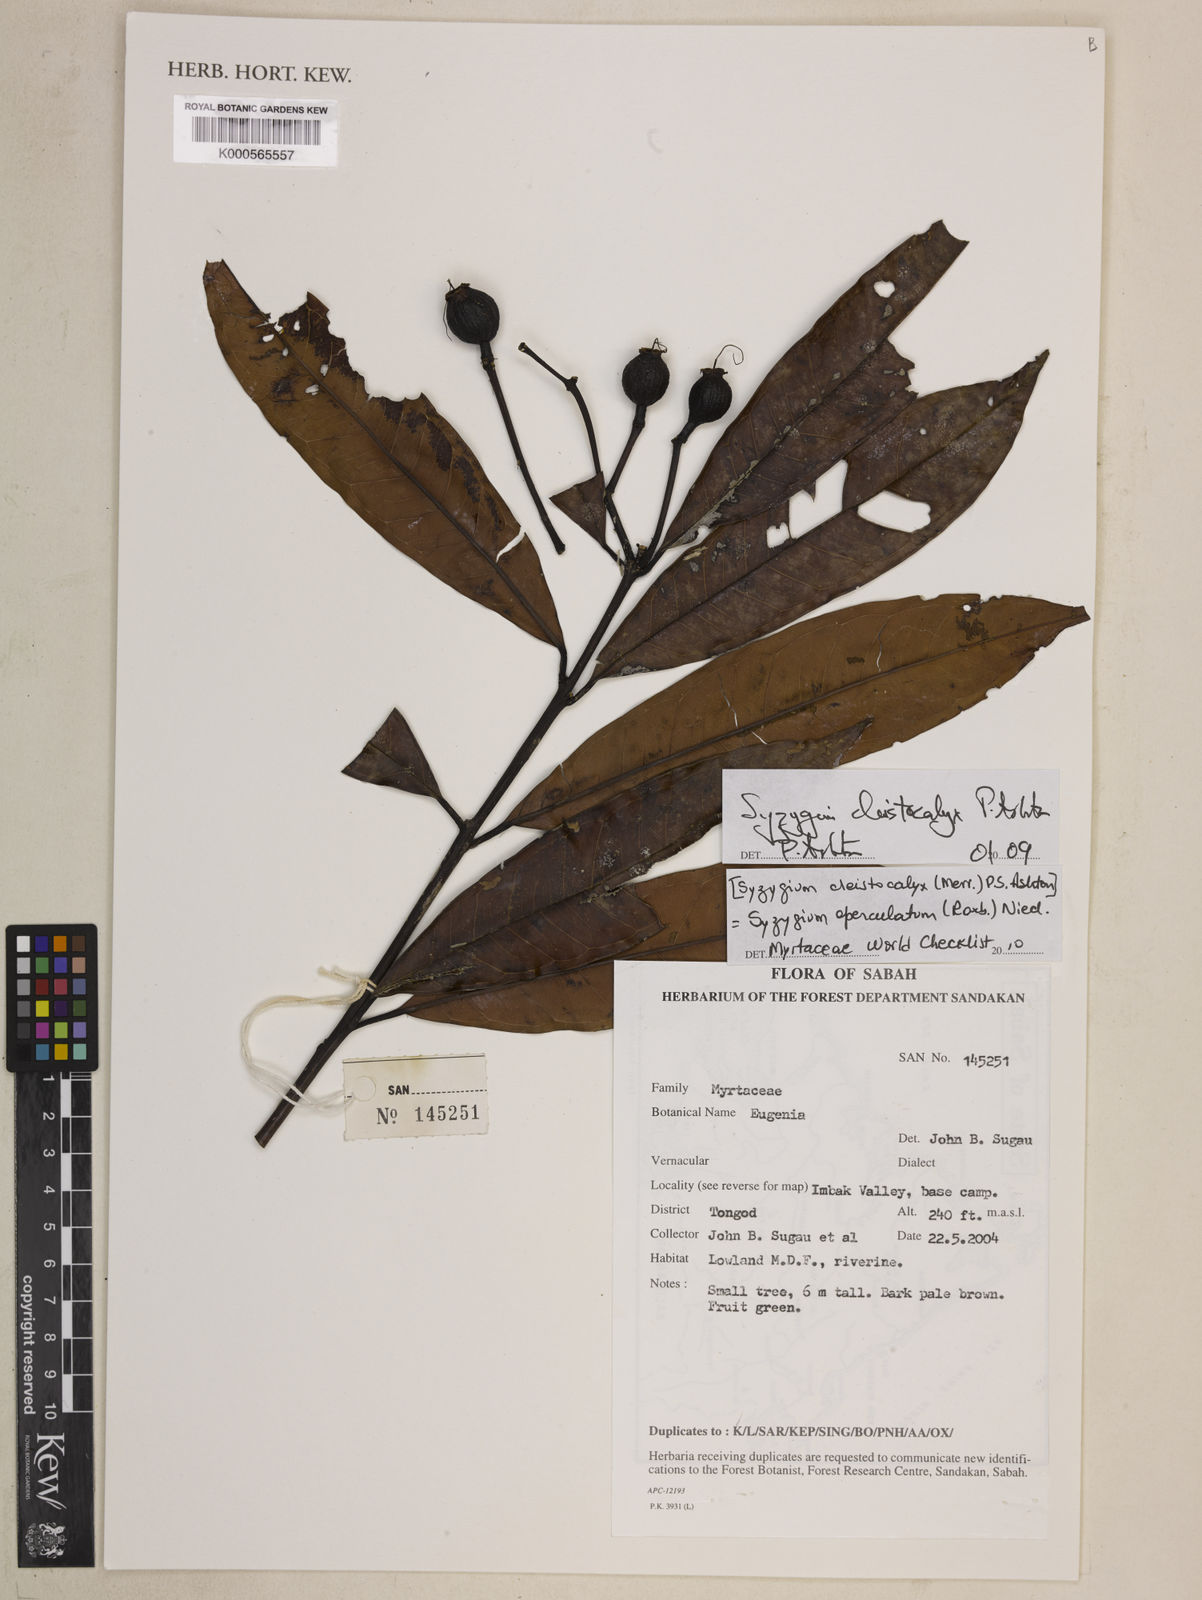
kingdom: Plantae
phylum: Tracheophyta
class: Magnoliopsida
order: Myrtales
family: Myrtaceae
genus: Syzygium
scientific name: Syzygium nervosum
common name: Daly river satinash
